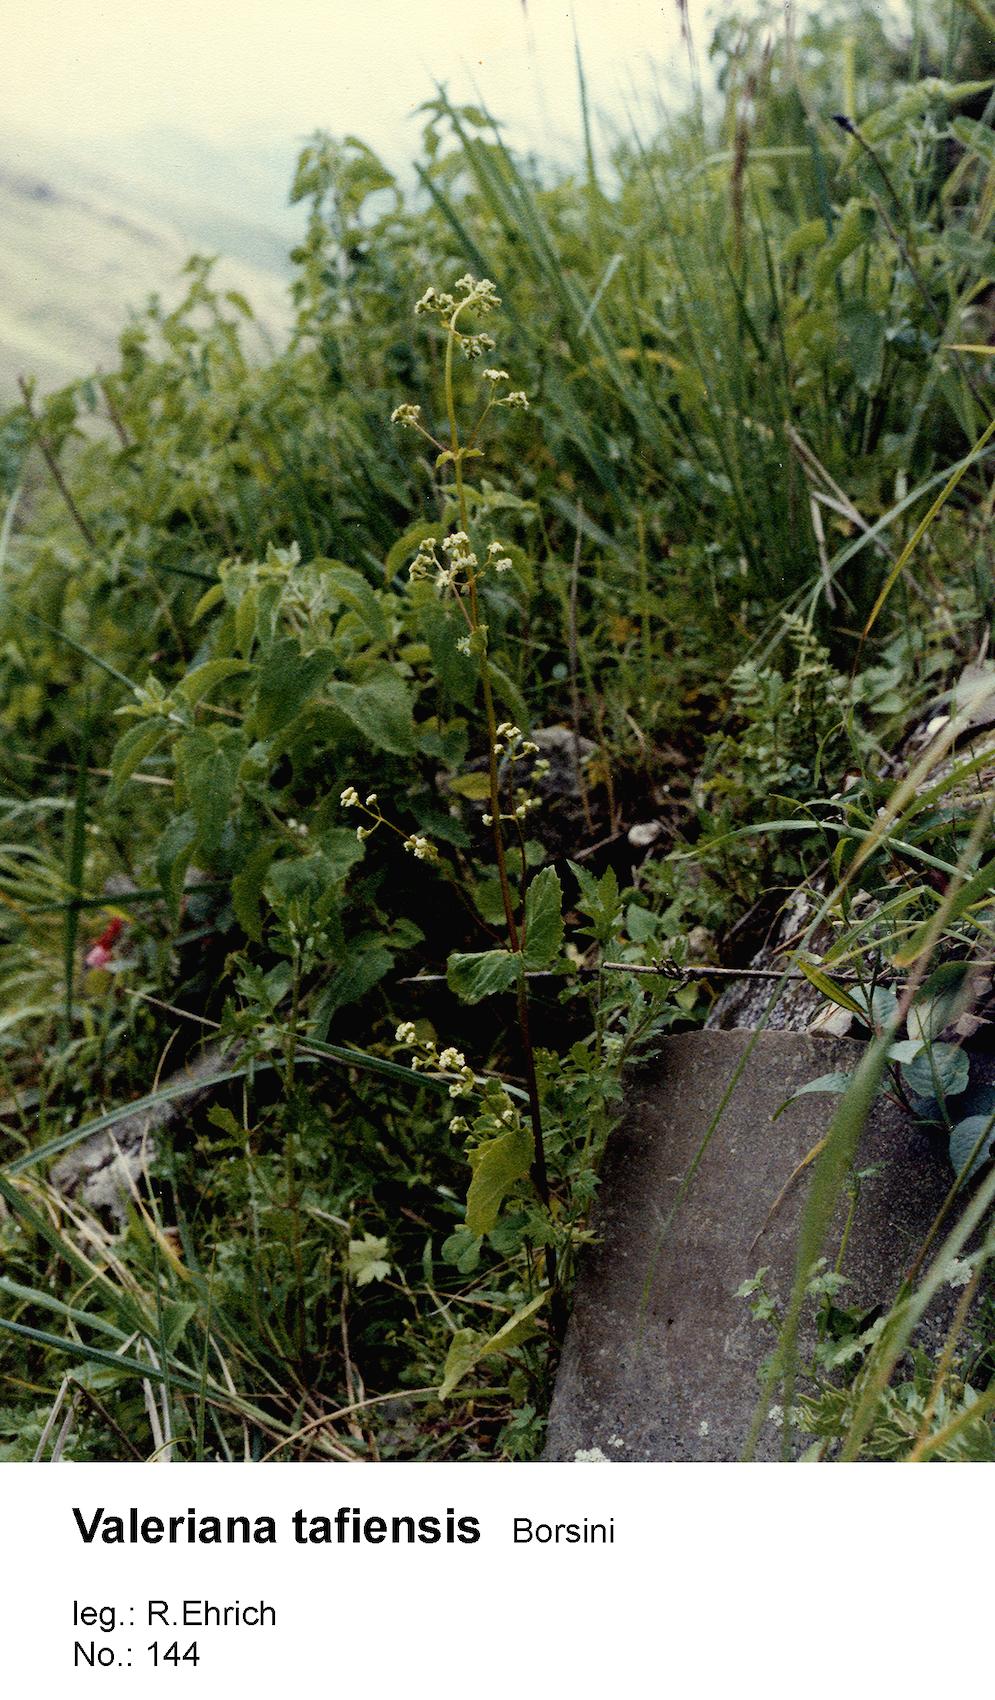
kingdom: Plantae
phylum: Tracheophyta
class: Magnoliopsida
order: Dipsacales
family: Caprifoliaceae
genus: Valeriana
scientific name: Valeriana tafiensis
